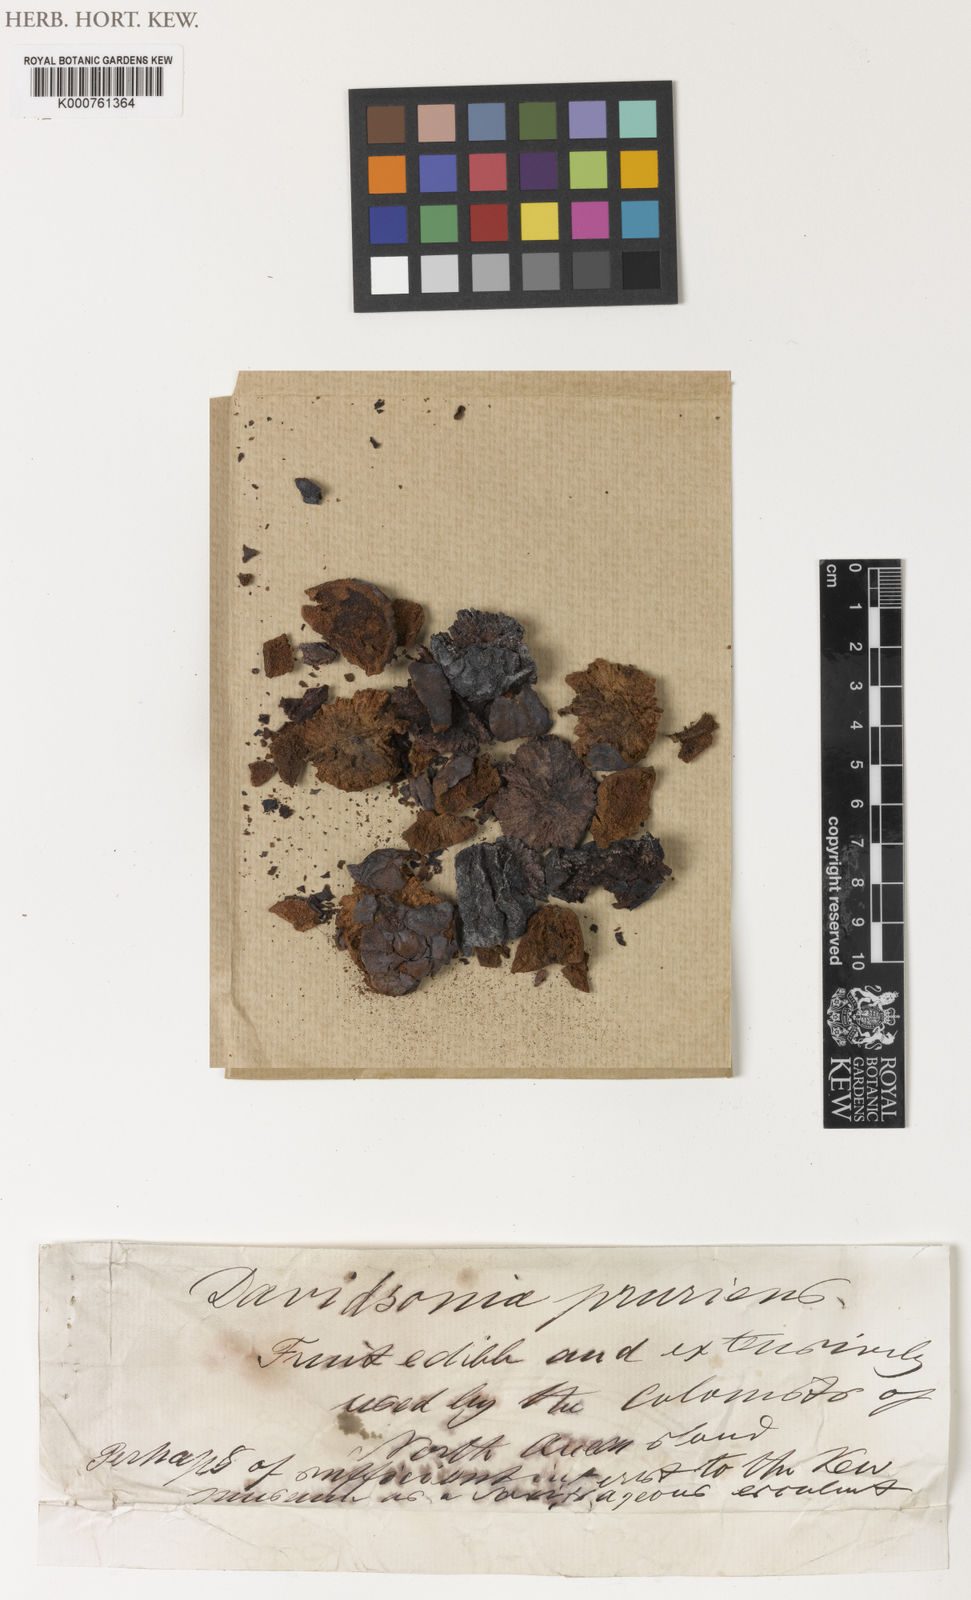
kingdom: Plantae
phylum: Tracheophyta
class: Magnoliopsida
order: Oxalidales
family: Cunoniaceae
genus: Davidsonia
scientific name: Davidsonia pruriens
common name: Do-rog
